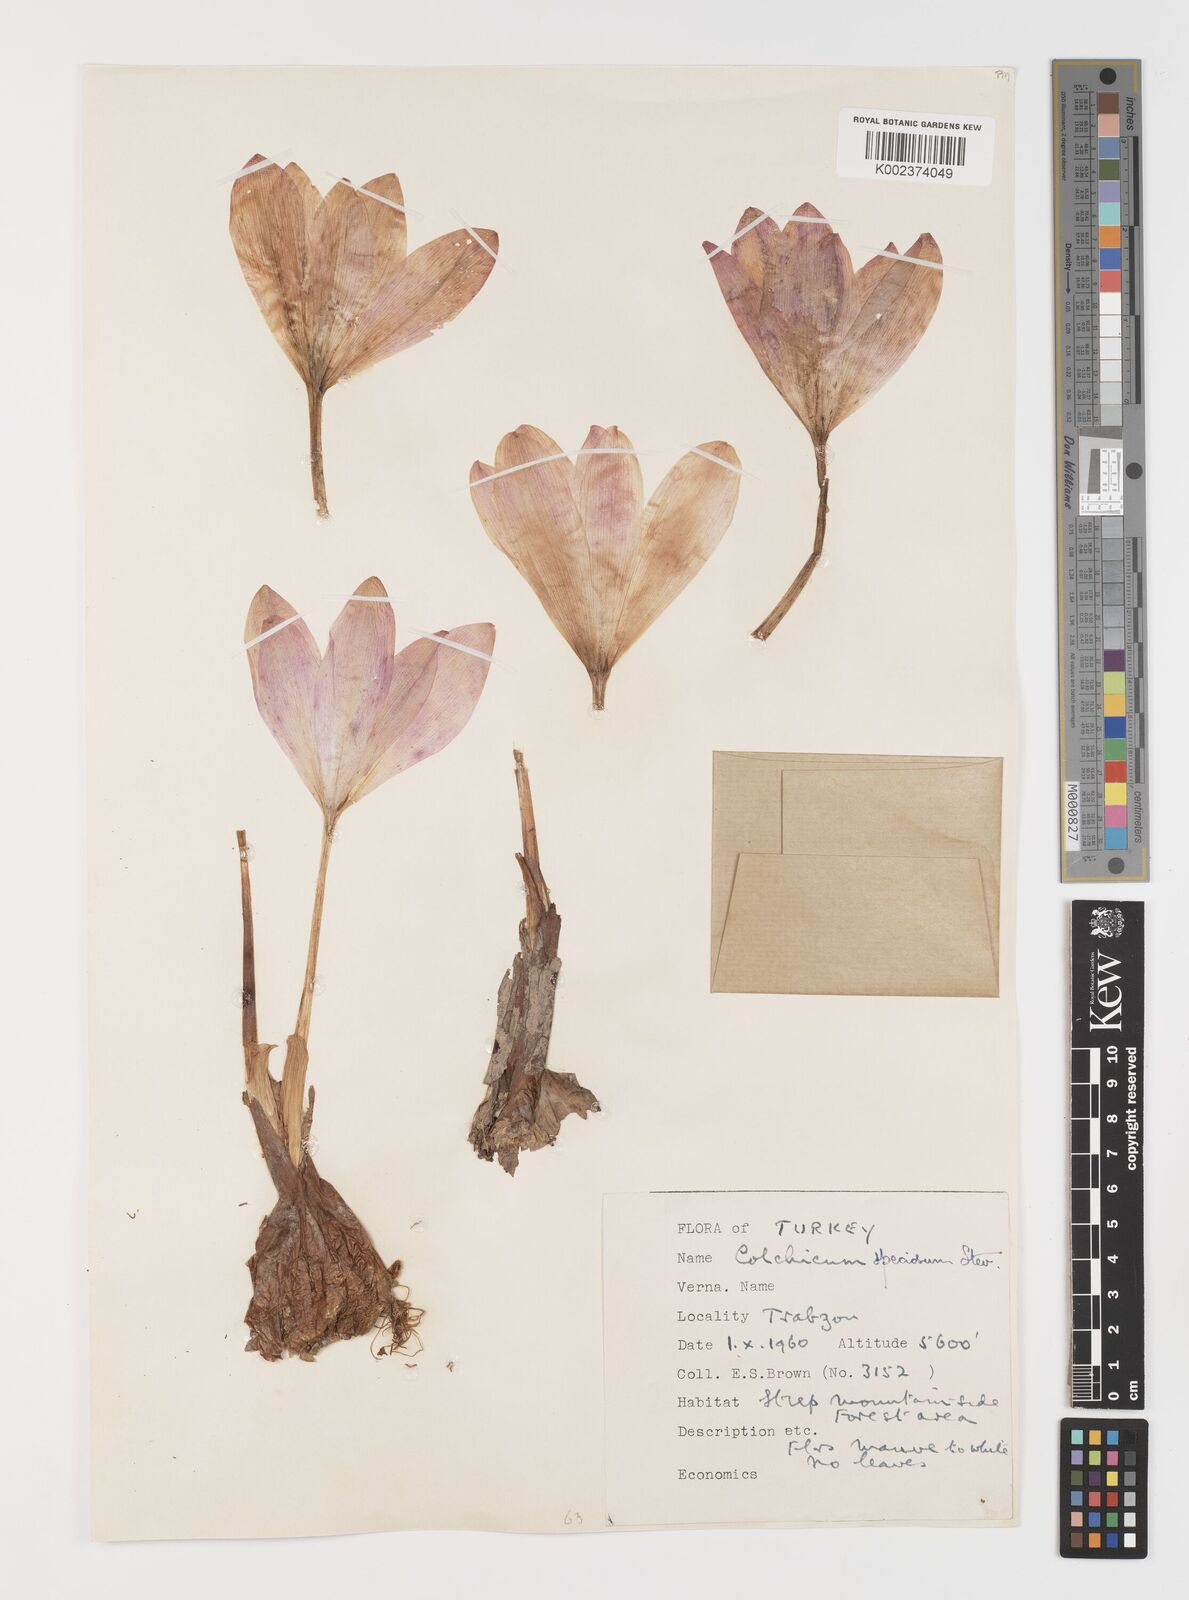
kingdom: Plantae
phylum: Tracheophyta
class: Liliopsida
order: Liliales
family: Colchicaceae
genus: Colchicum
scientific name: Colchicum speciosum
